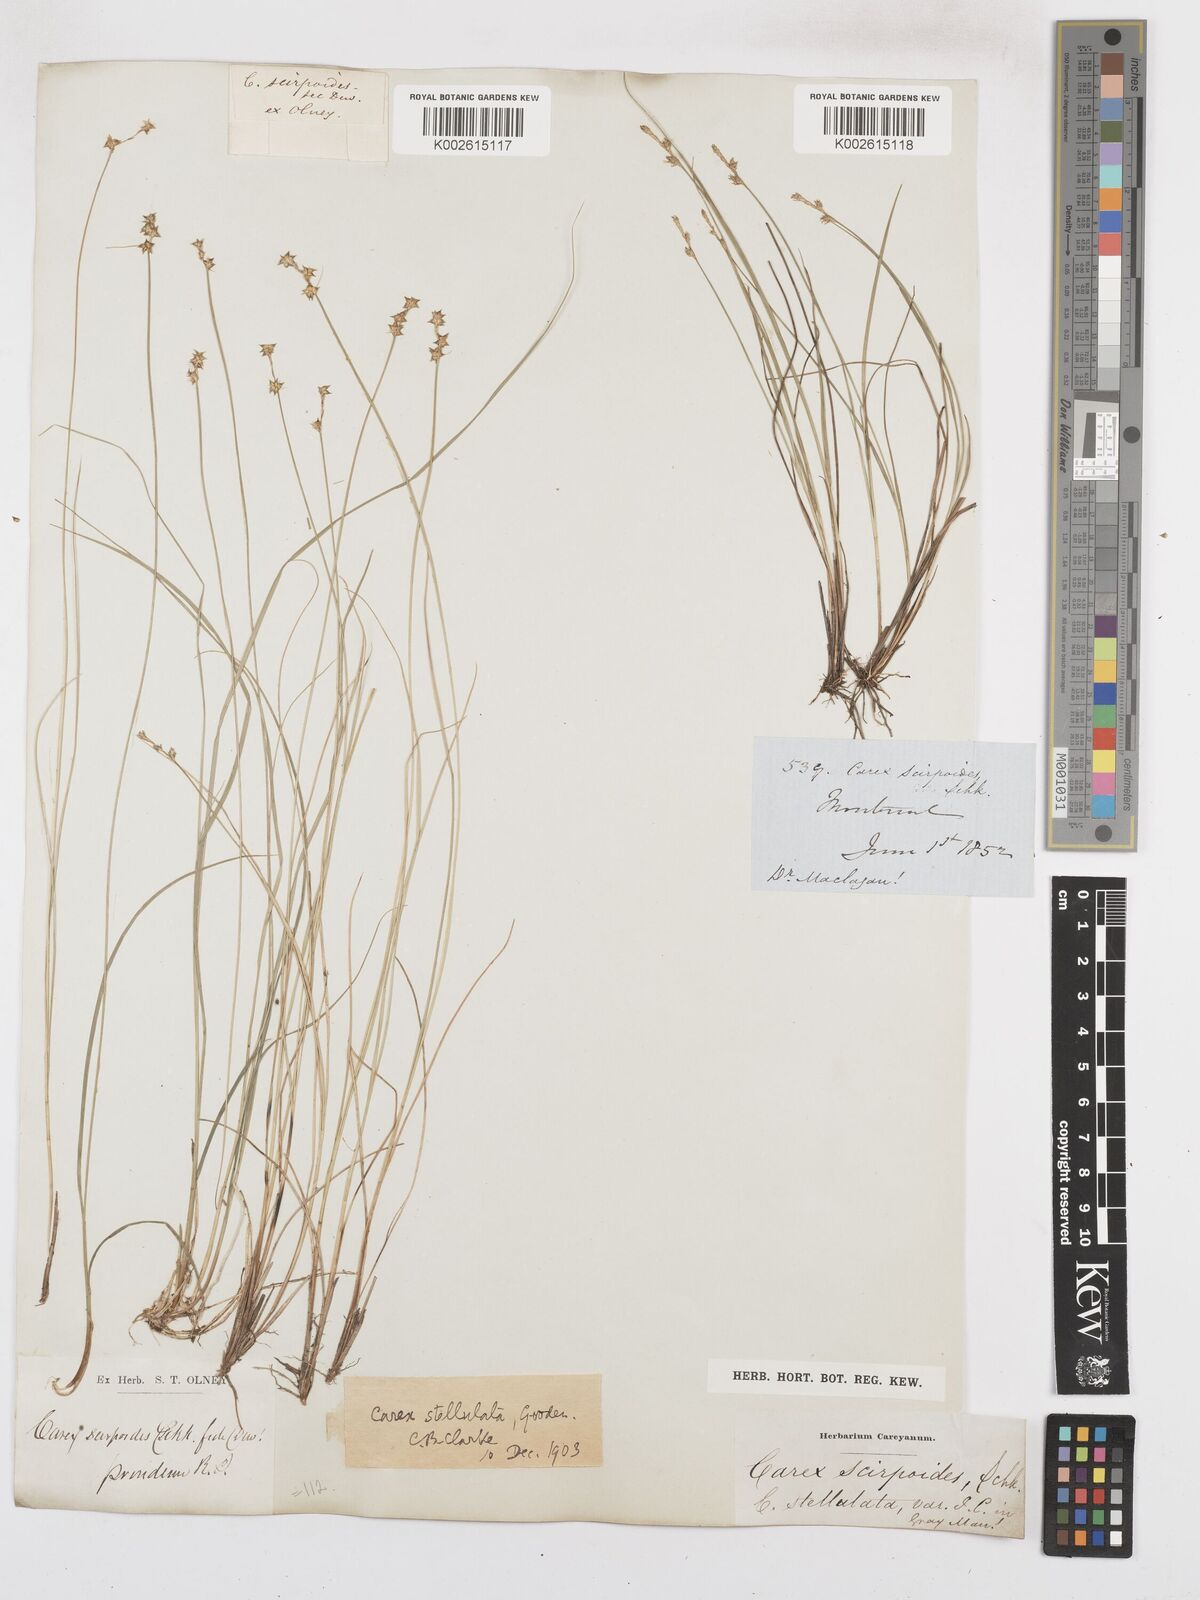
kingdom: Plantae
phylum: Tracheophyta
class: Liliopsida
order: Poales
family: Cyperaceae
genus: Carex
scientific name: Carex echinata
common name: Star sedge
